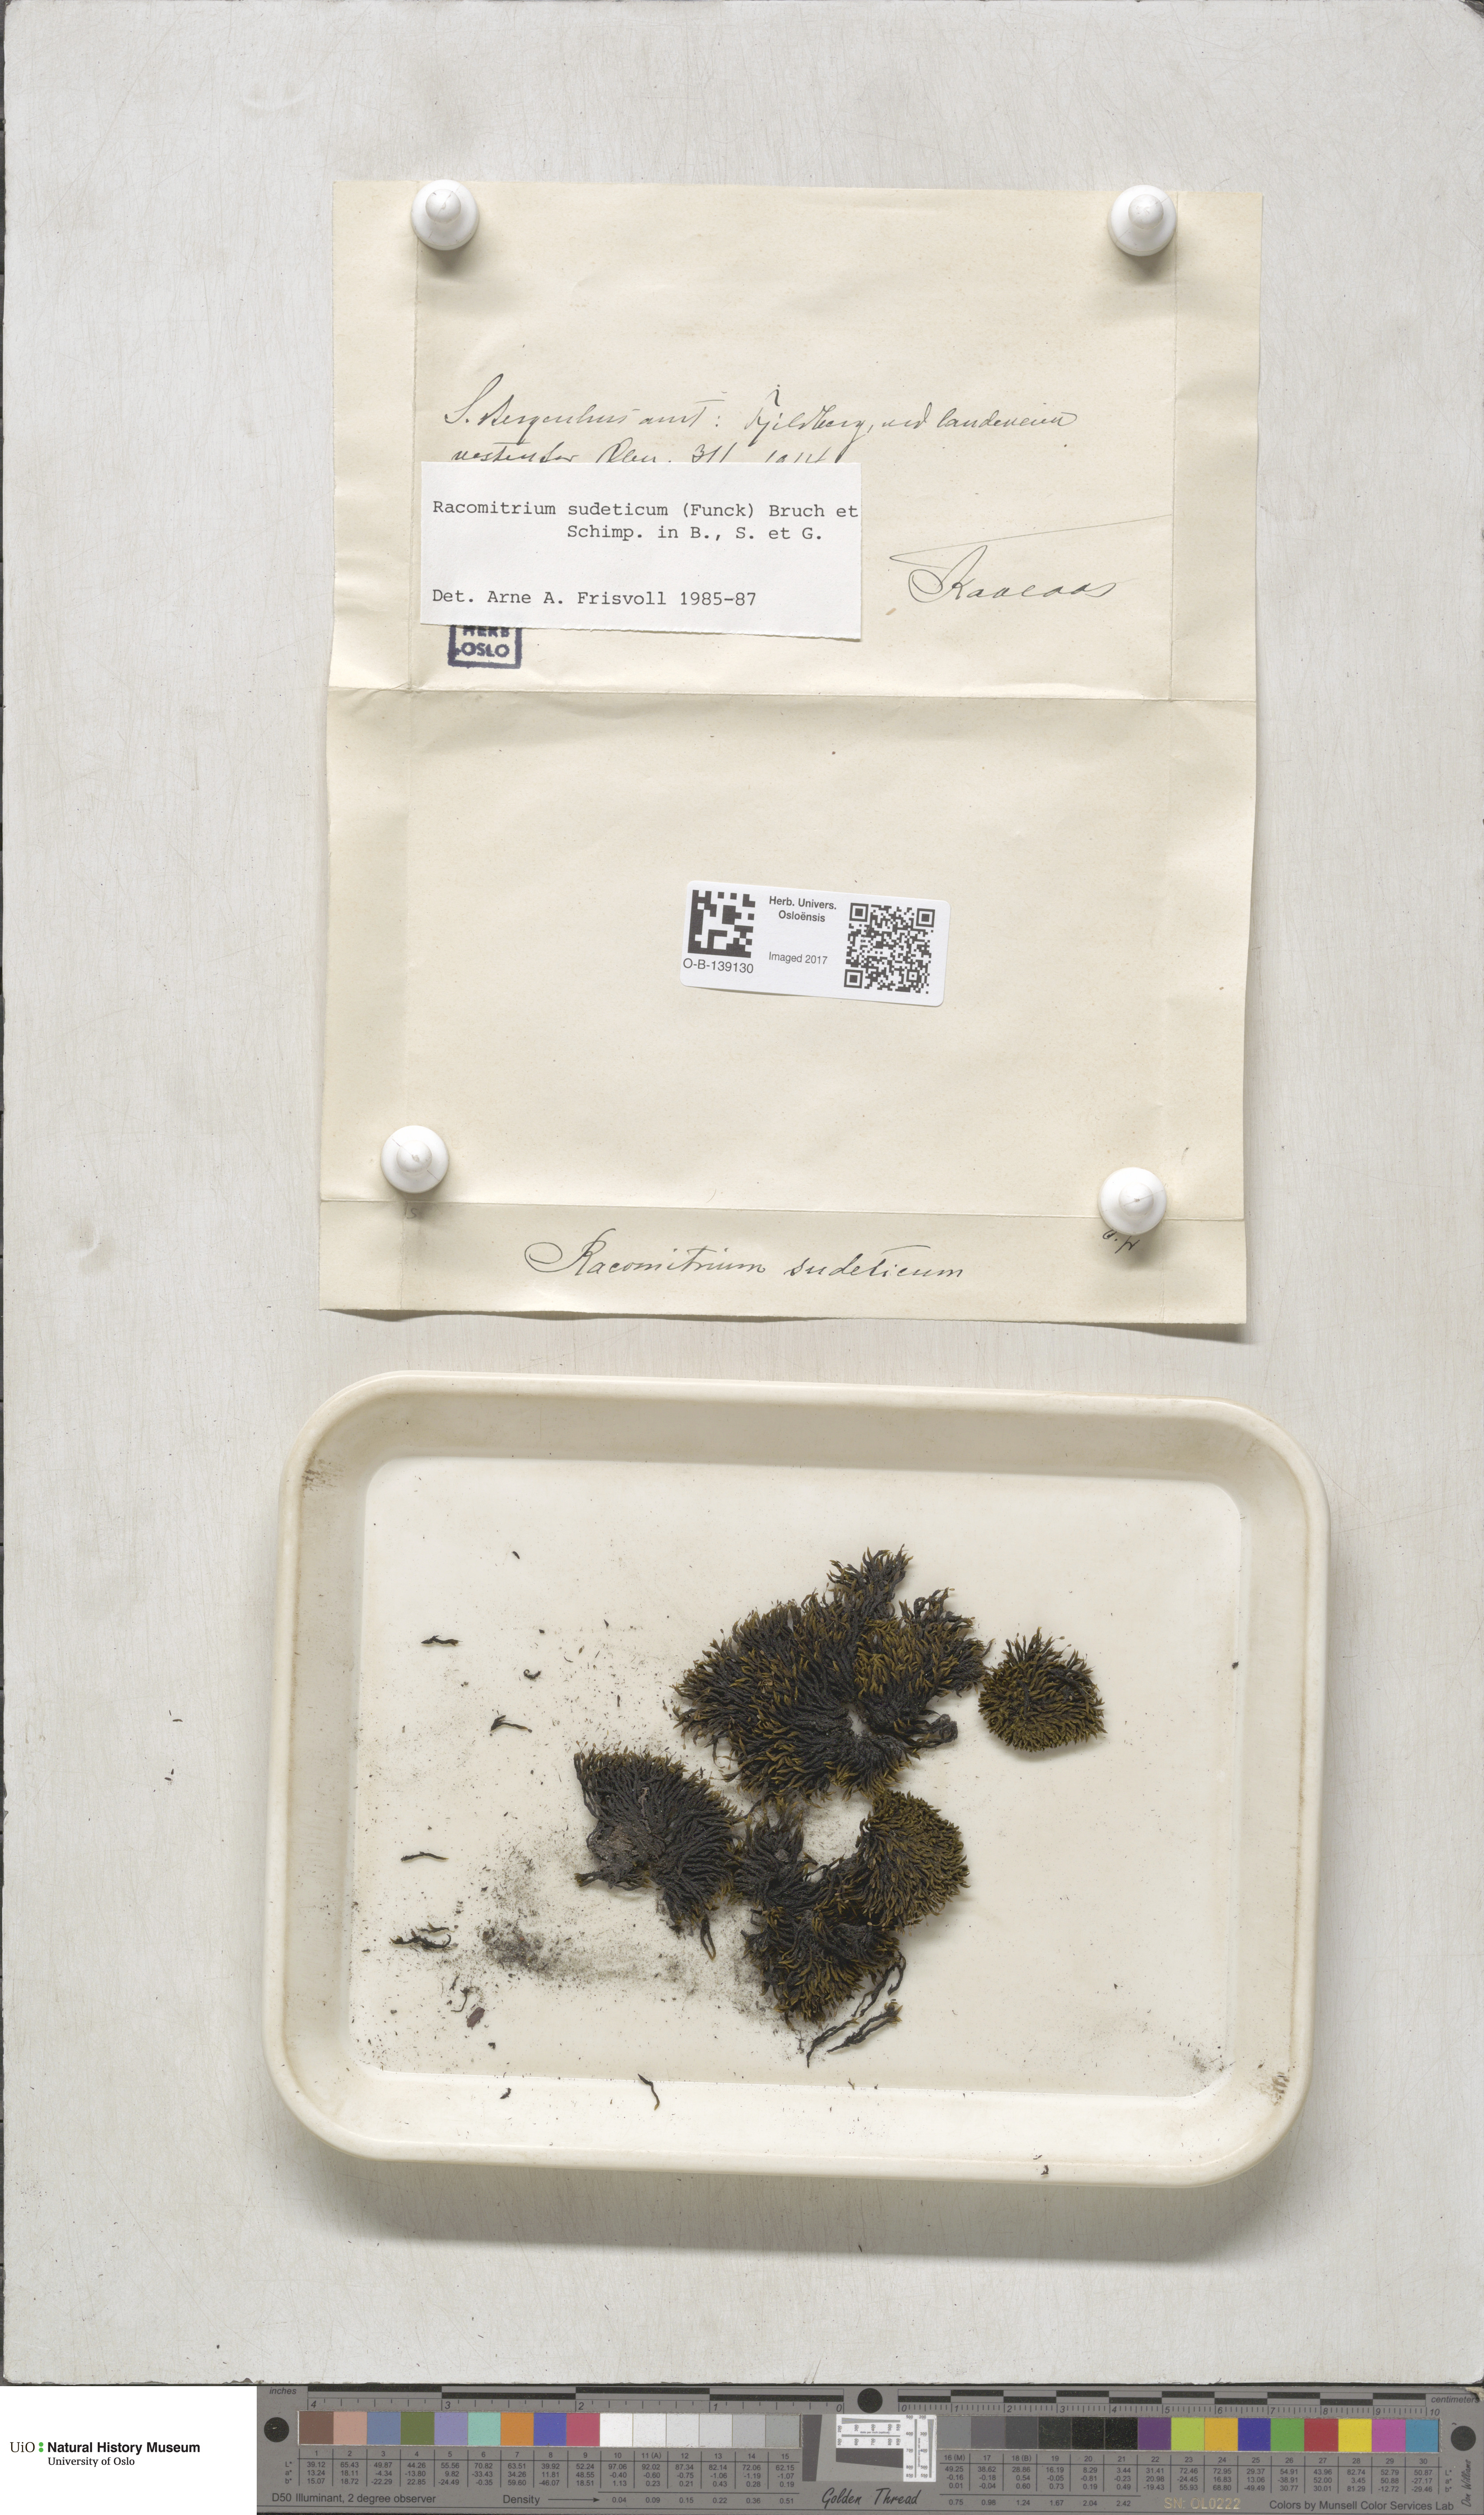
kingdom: Plantae
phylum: Bryophyta
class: Bryopsida
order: Grimmiales
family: Grimmiaceae
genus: Bucklandiella
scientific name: Bucklandiella sudetica
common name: Slender fringe-moss
